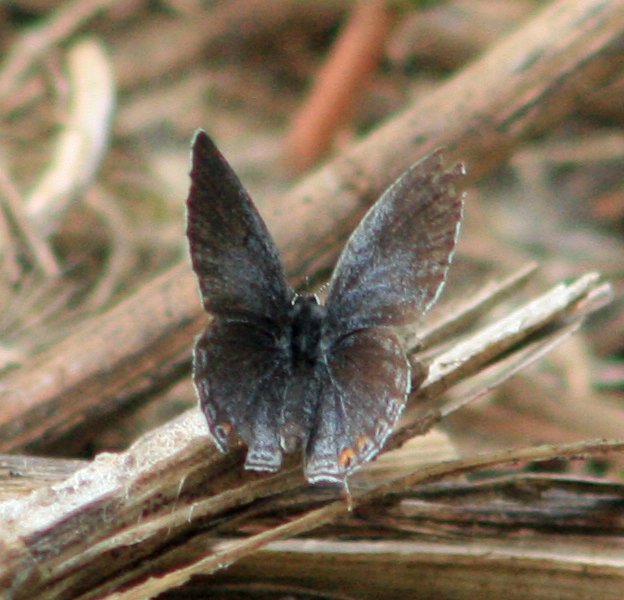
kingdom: Animalia
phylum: Arthropoda
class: Insecta
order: Lepidoptera
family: Lycaenidae
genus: Elkalyce
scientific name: Elkalyce comyntas
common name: Eastern Tailed-Blue
